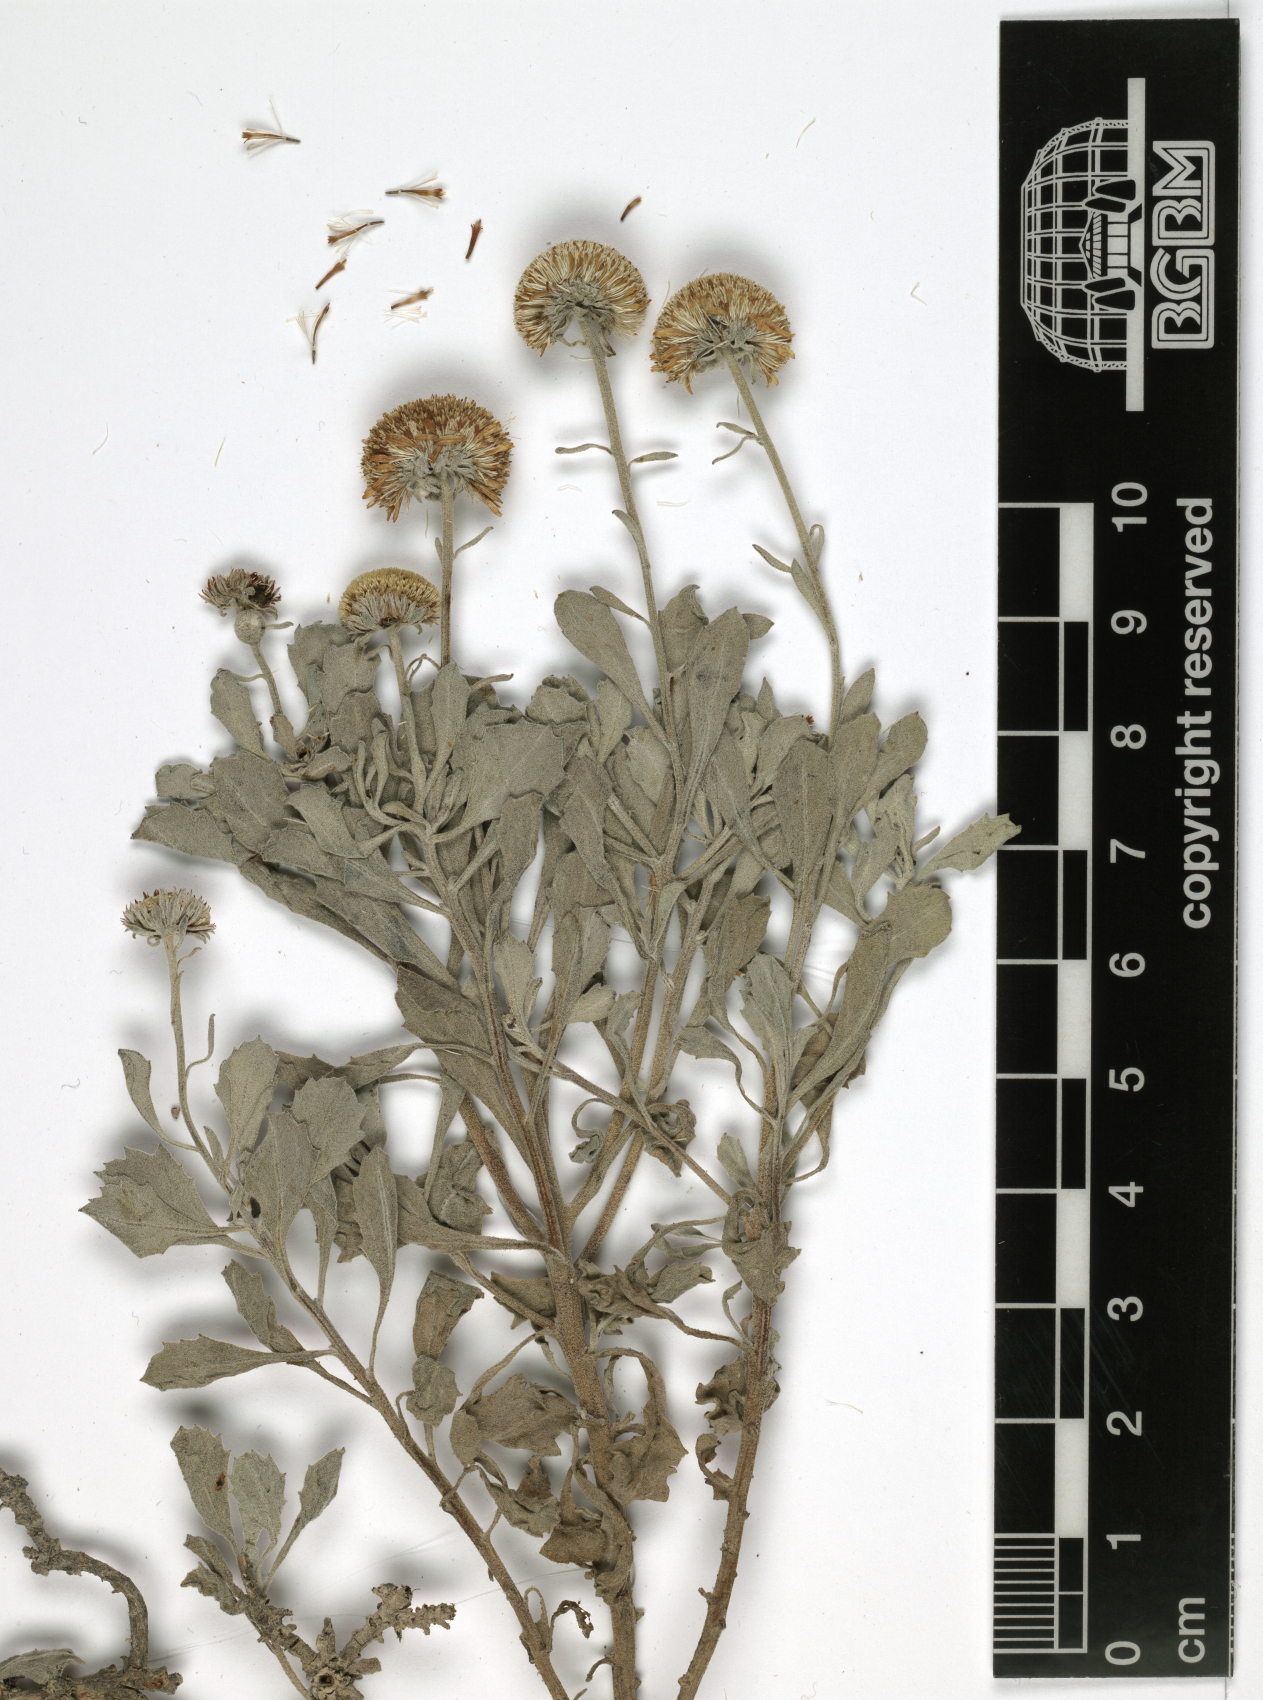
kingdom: Plantae
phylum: Tracheophyta
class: Magnoliopsida
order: Asterales
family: Asteraceae
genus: Pulicaria
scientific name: Pulicaria argyrophylla
